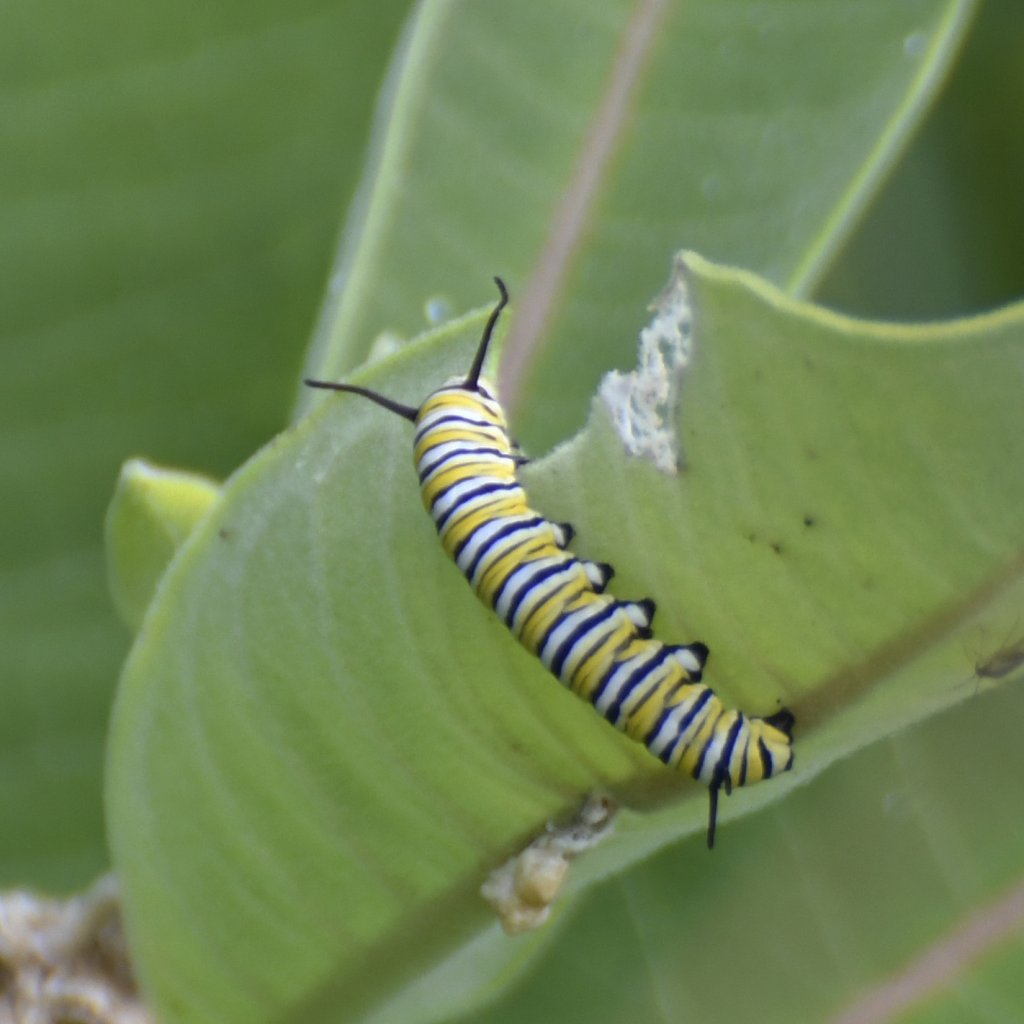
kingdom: Animalia
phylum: Arthropoda
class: Insecta
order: Lepidoptera
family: Nymphalidae
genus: Danaus
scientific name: Danaus plexippus
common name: Monarch
